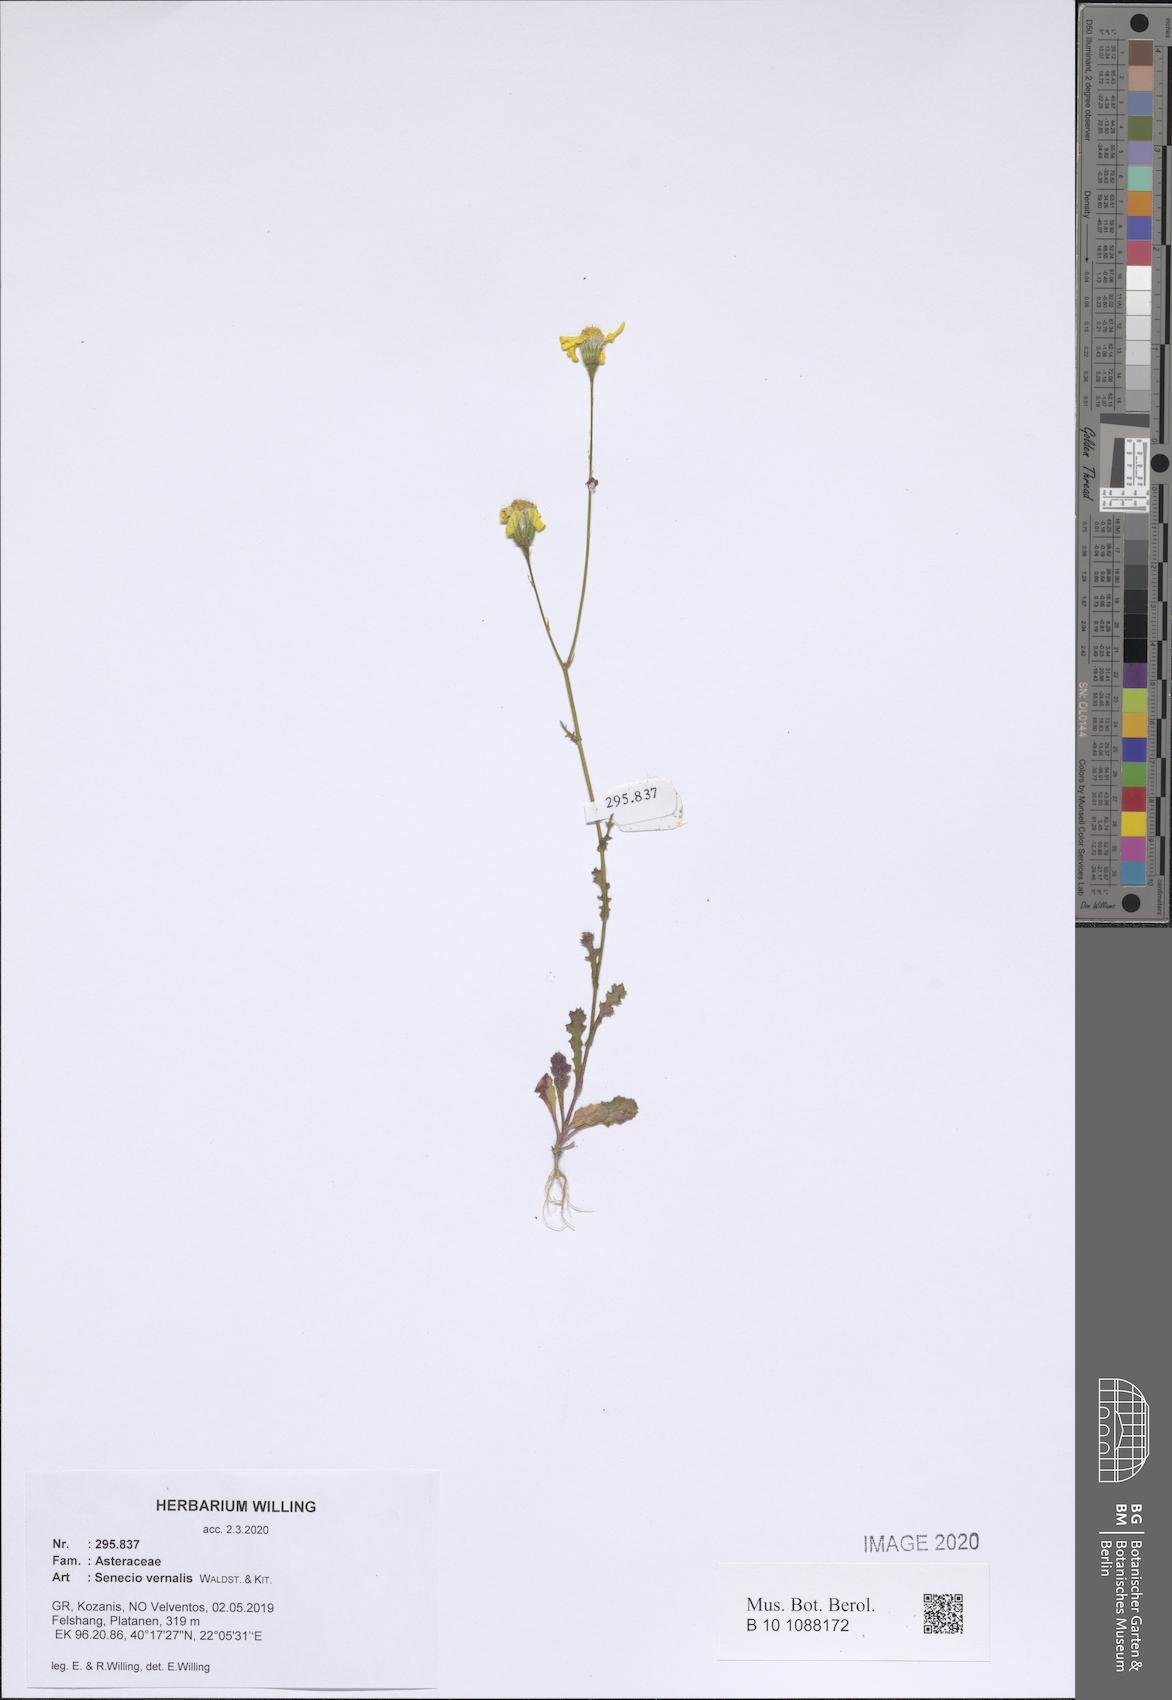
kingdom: Plantae
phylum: Tracheophyta
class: Magnoliopsida
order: Asterales
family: Asteraceae
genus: Senecio
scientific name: Senecio vernalis
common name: Eastern groundsel
